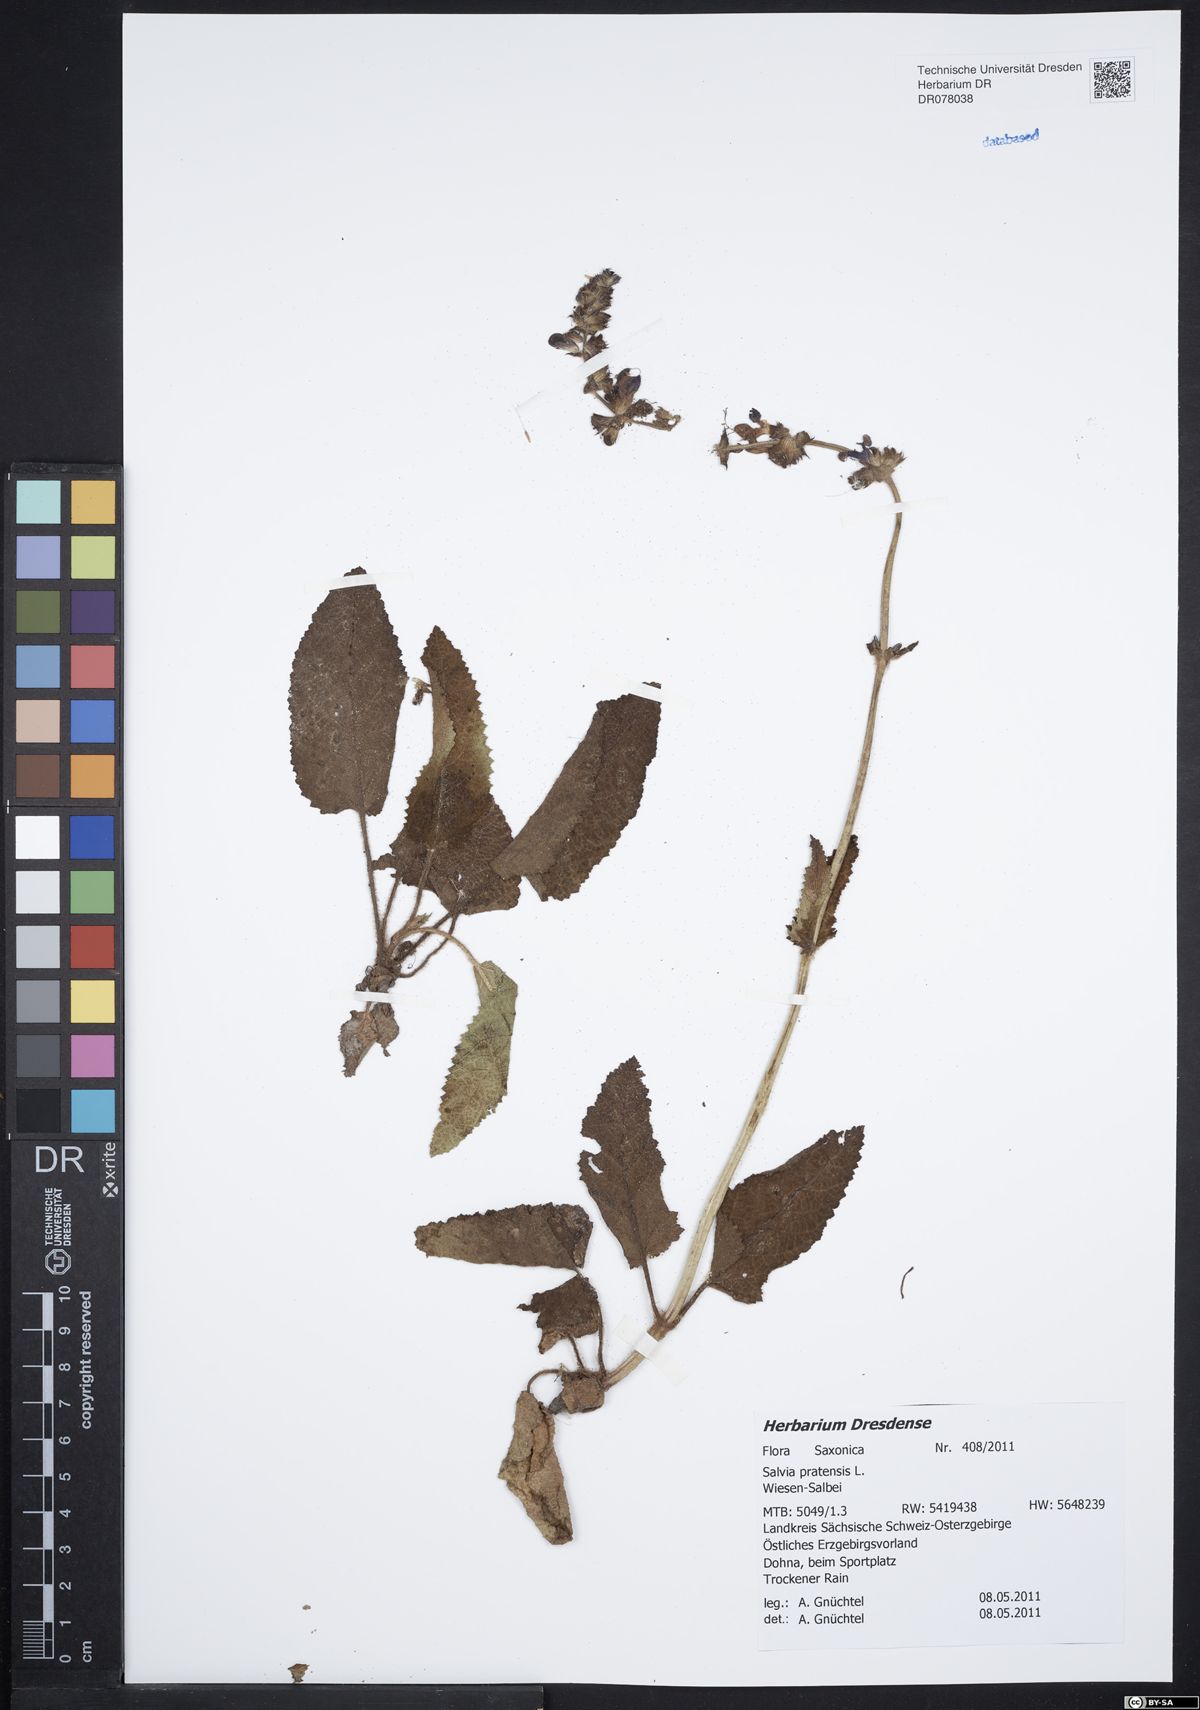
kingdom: Plantae
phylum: Tracheophyta
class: Magnoliopsida
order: Lamiales
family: Lamiaceae
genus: Salvia
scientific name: Salvia pratensis
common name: Meadow sage
